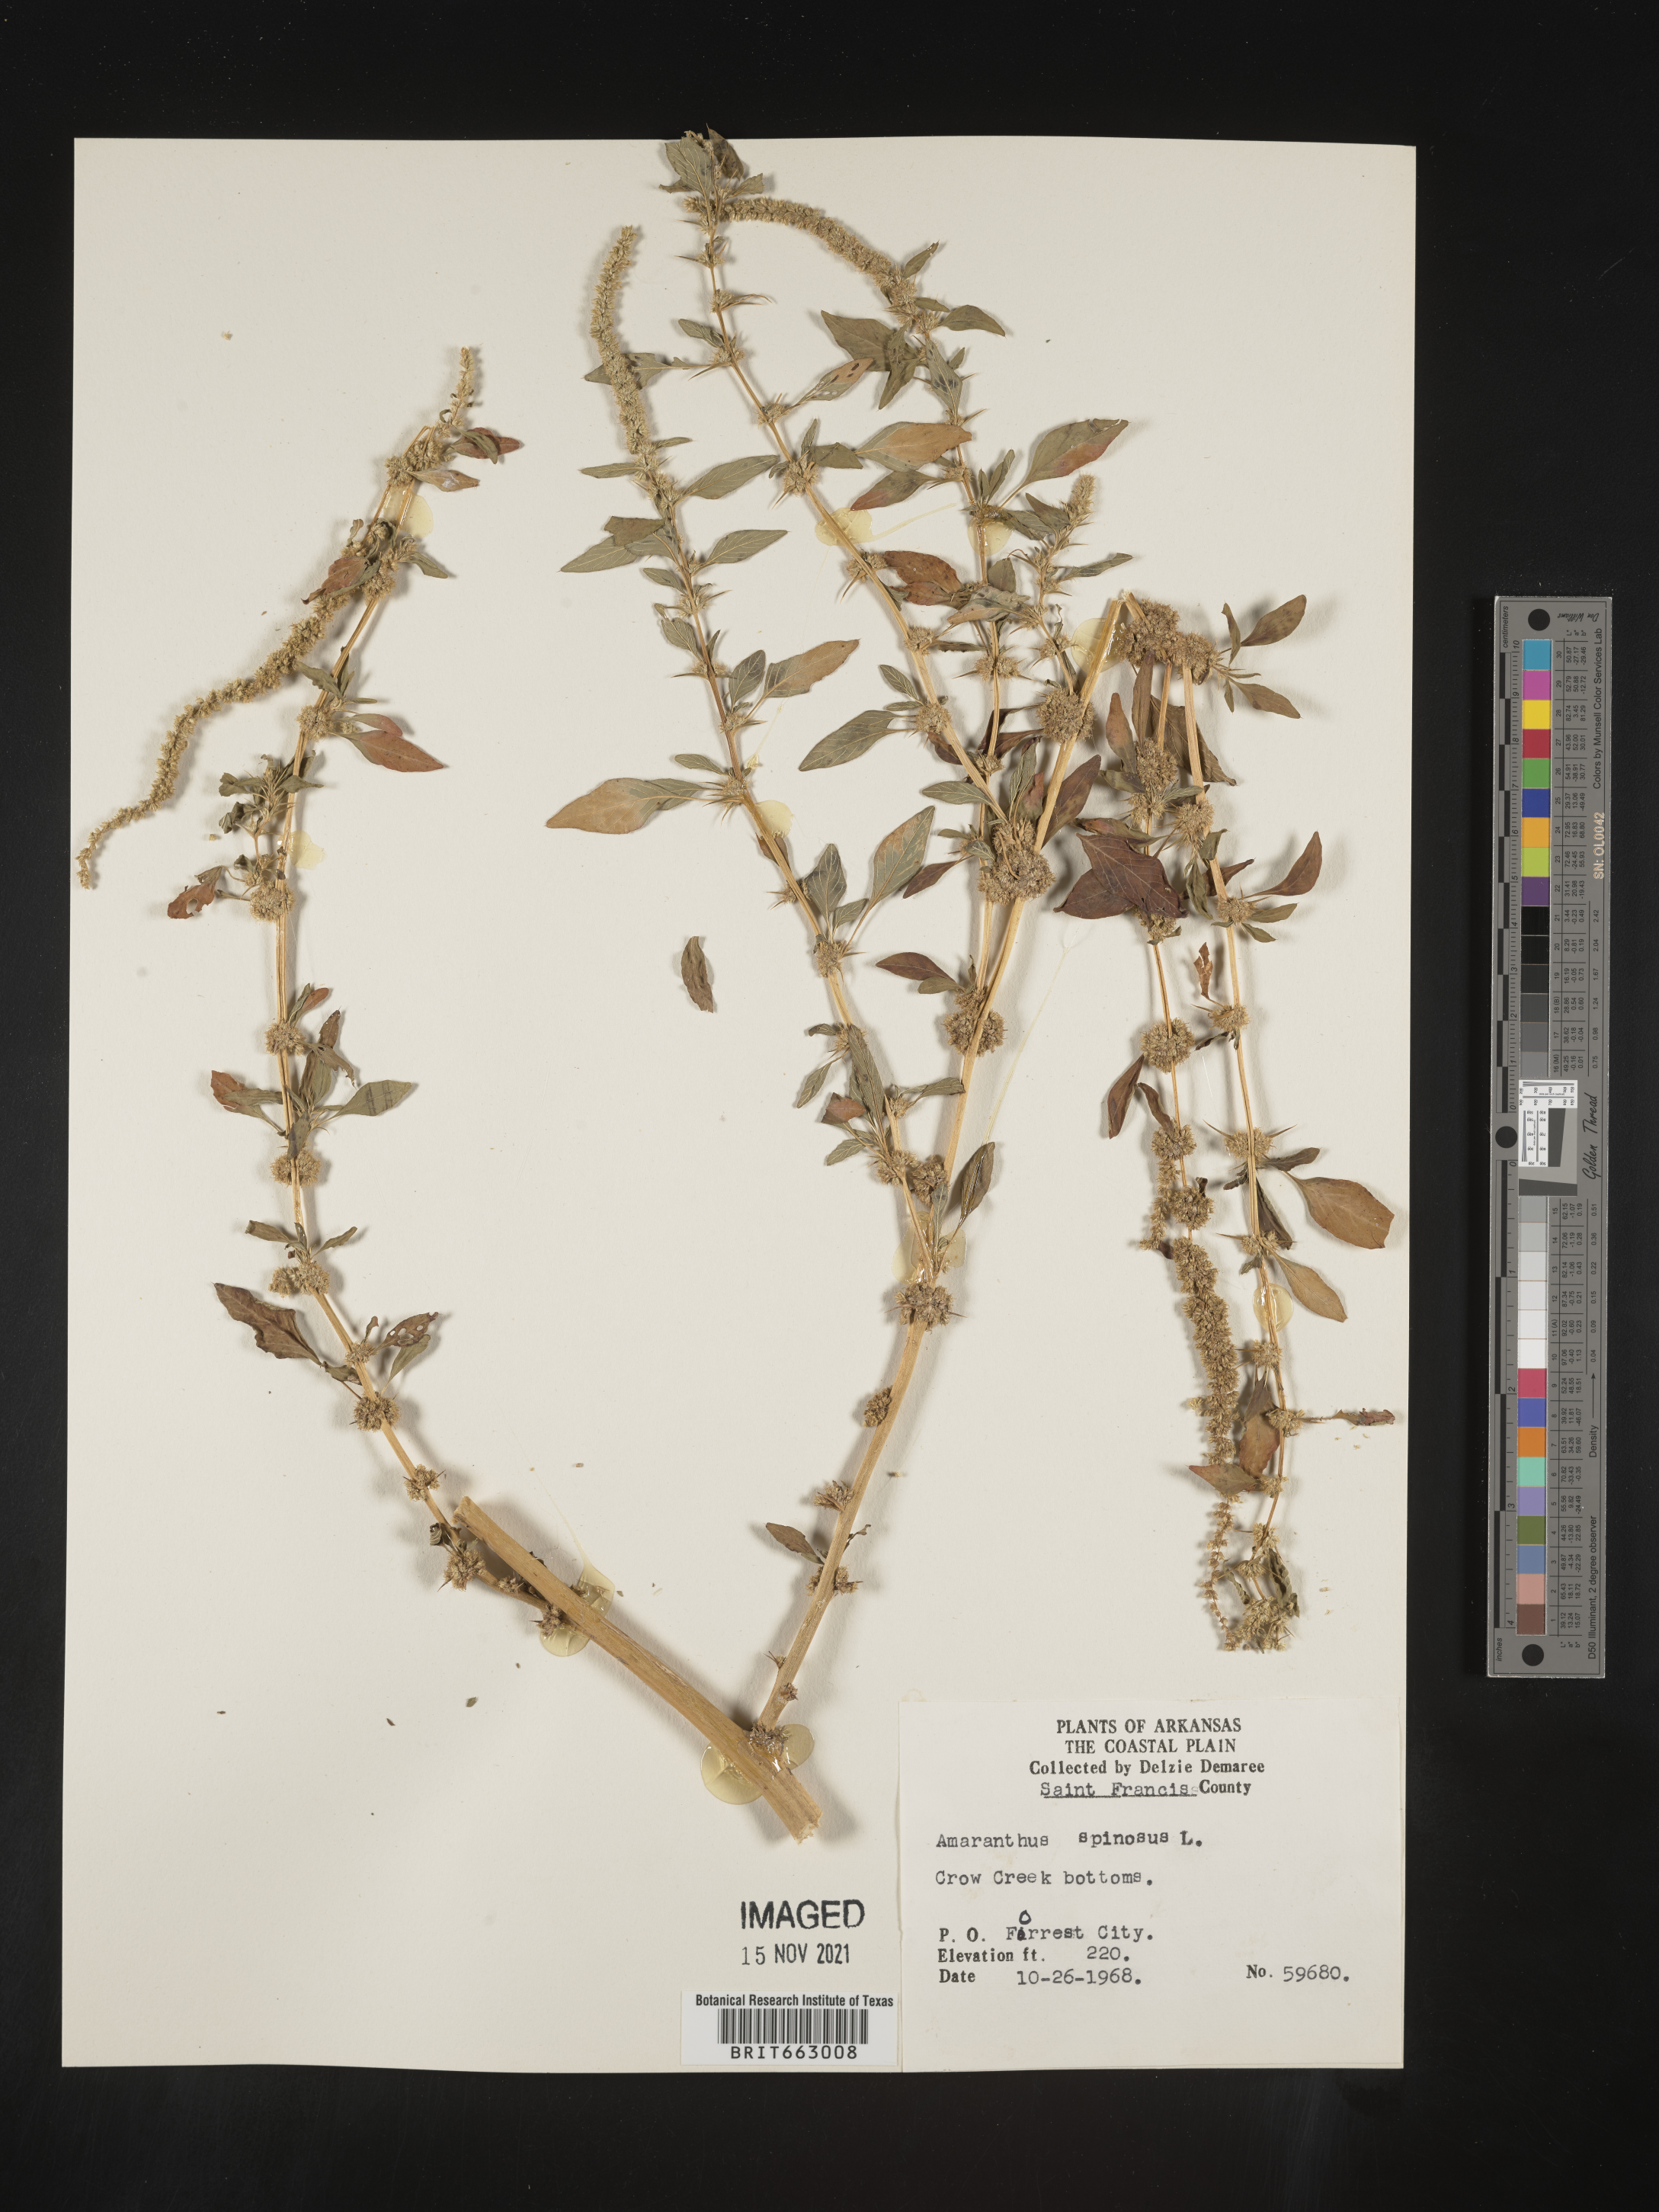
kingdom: Plantae
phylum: Tracheophyta
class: Magnoliopsida
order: Caryophyllales
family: Amaranthaceae
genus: Amaranthus
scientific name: Amaranthus spinosus
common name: Spiny amaranth
